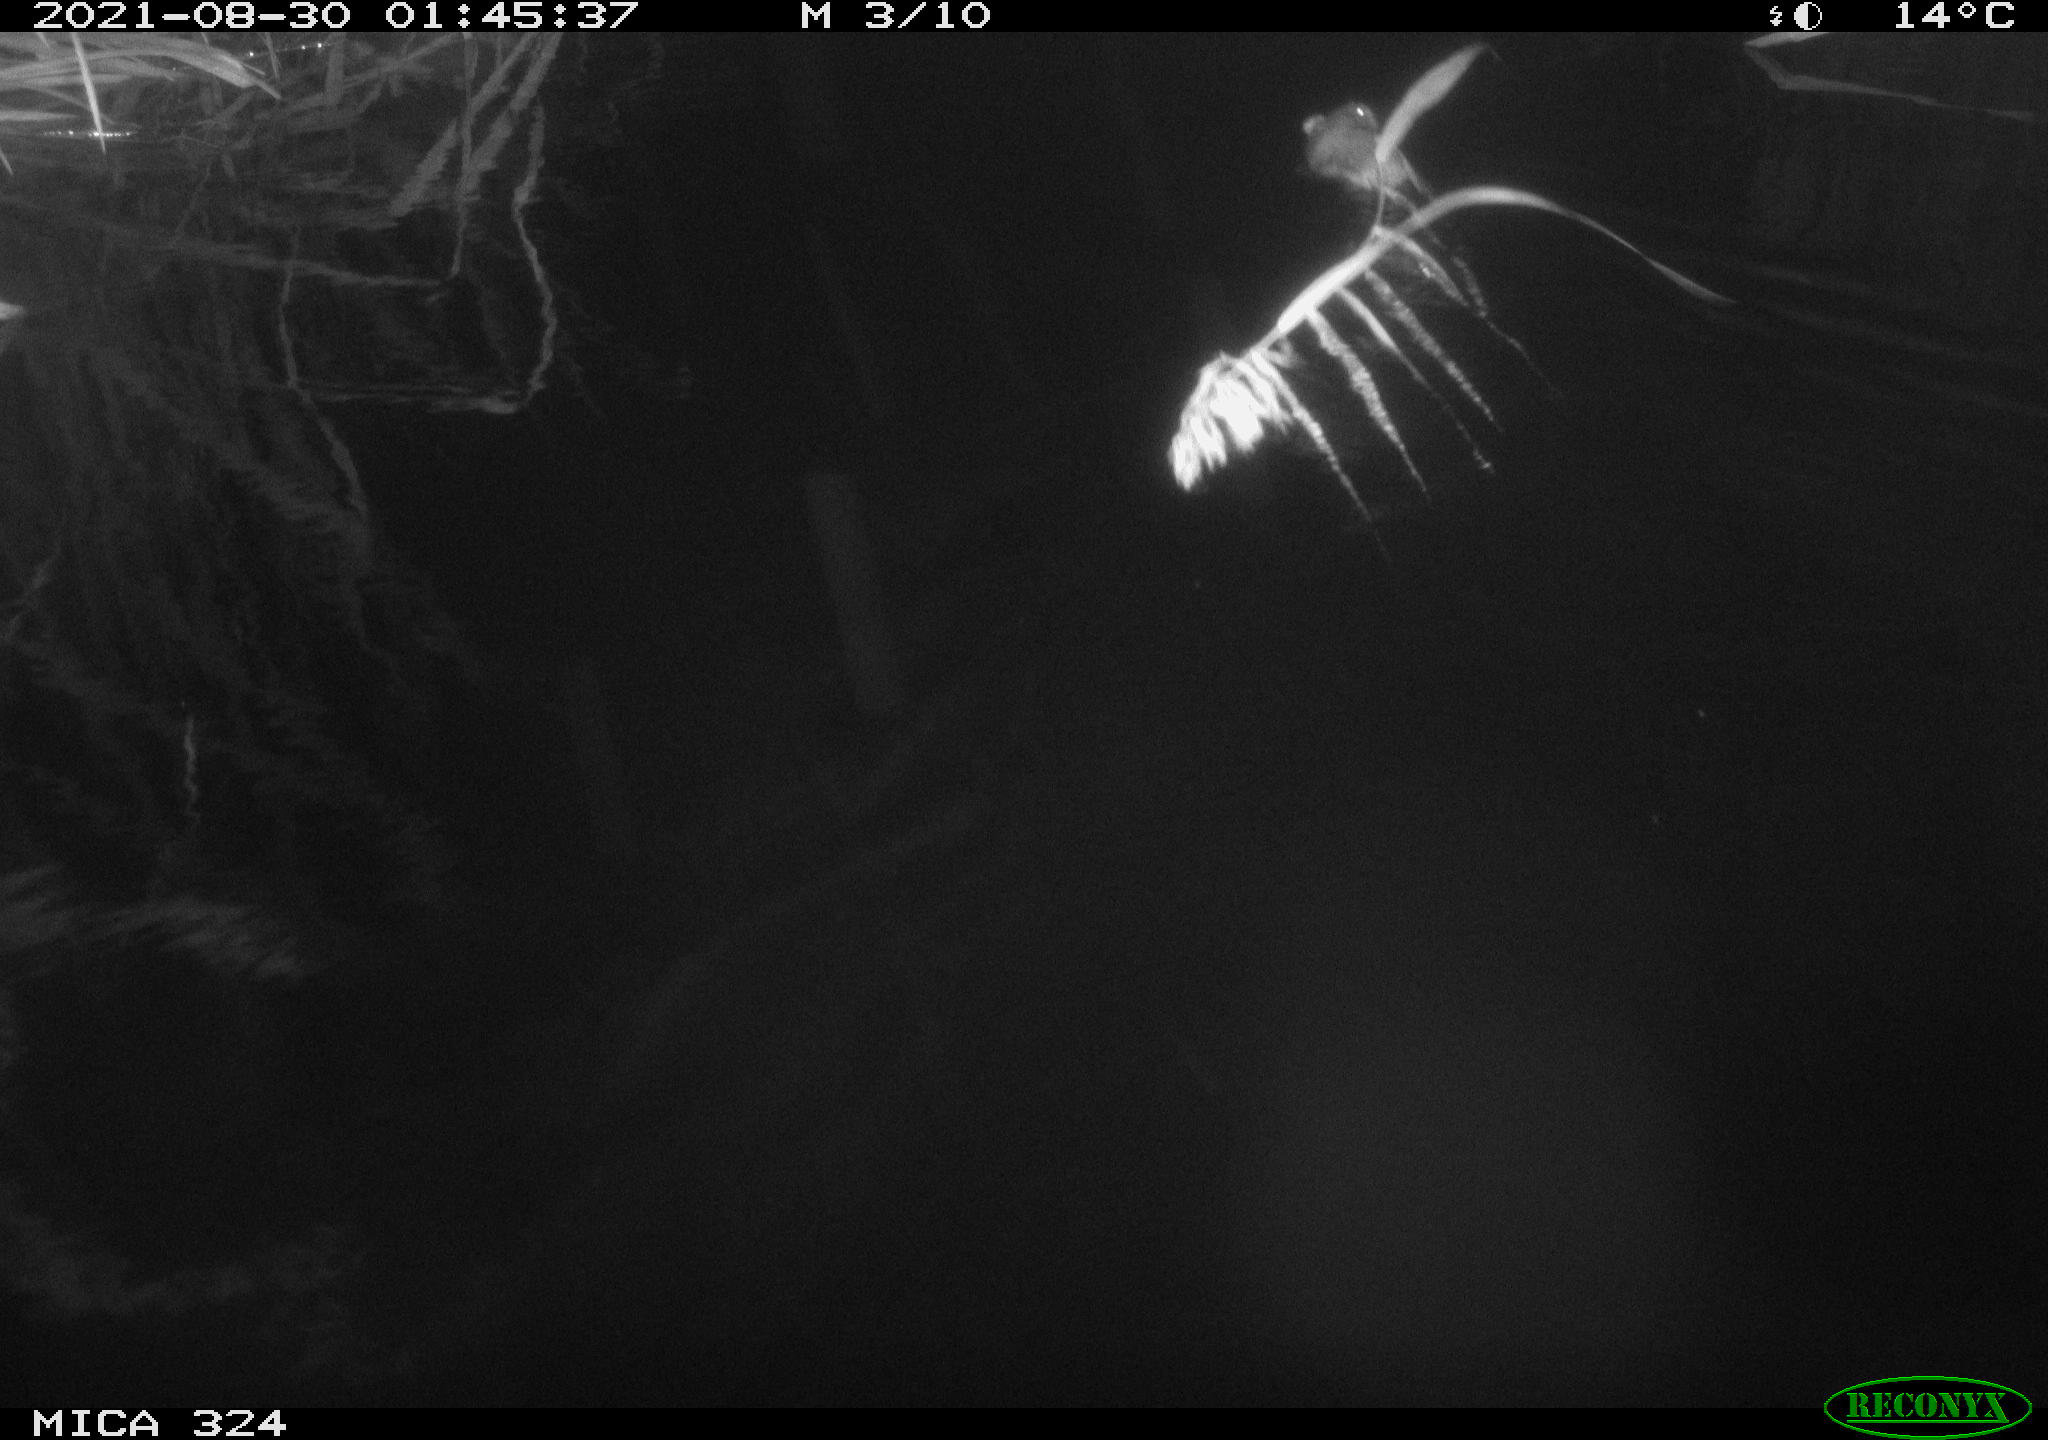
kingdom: Animalia
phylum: Chordata
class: Mammalia
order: Rodentia
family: Cricetidae
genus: Ondatra
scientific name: Ondatra zibethicus
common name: Muskrat
